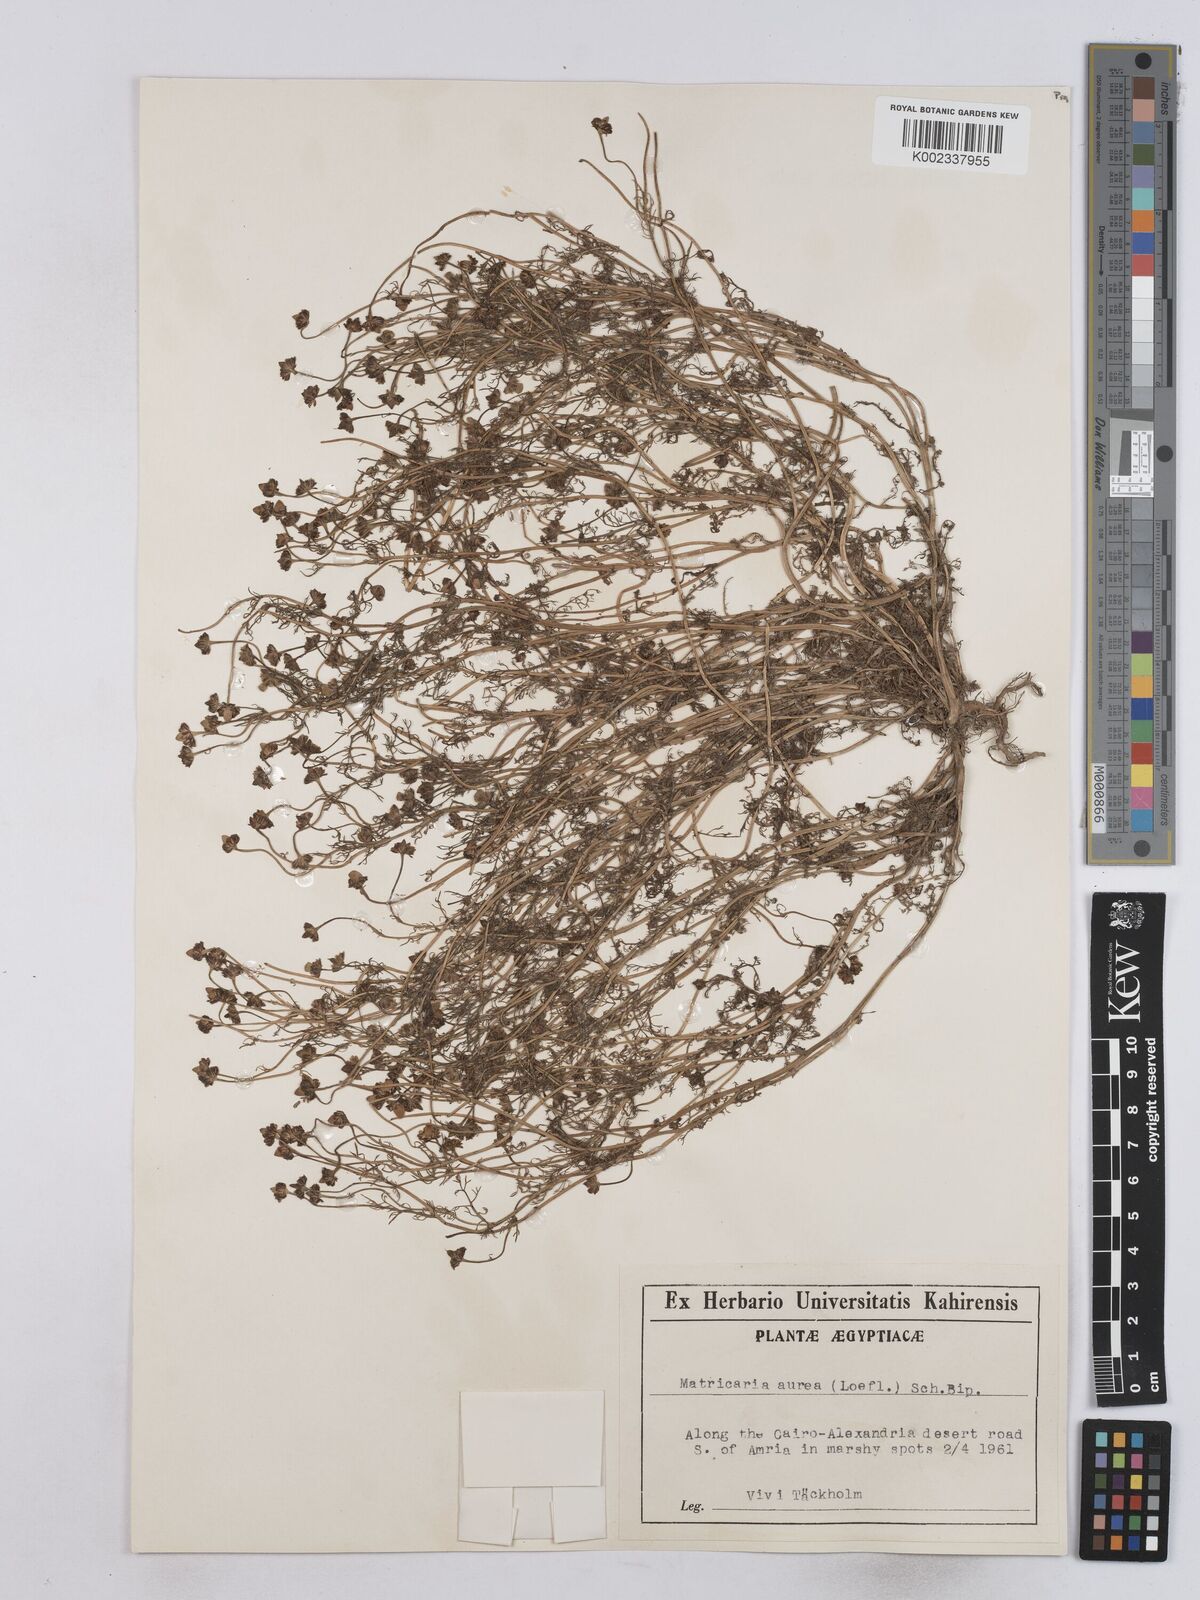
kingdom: Plantae
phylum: Tracheophyta
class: Magnoliopsida
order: Asterales
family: Asteraceae
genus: Matricaria
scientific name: Matricaria
